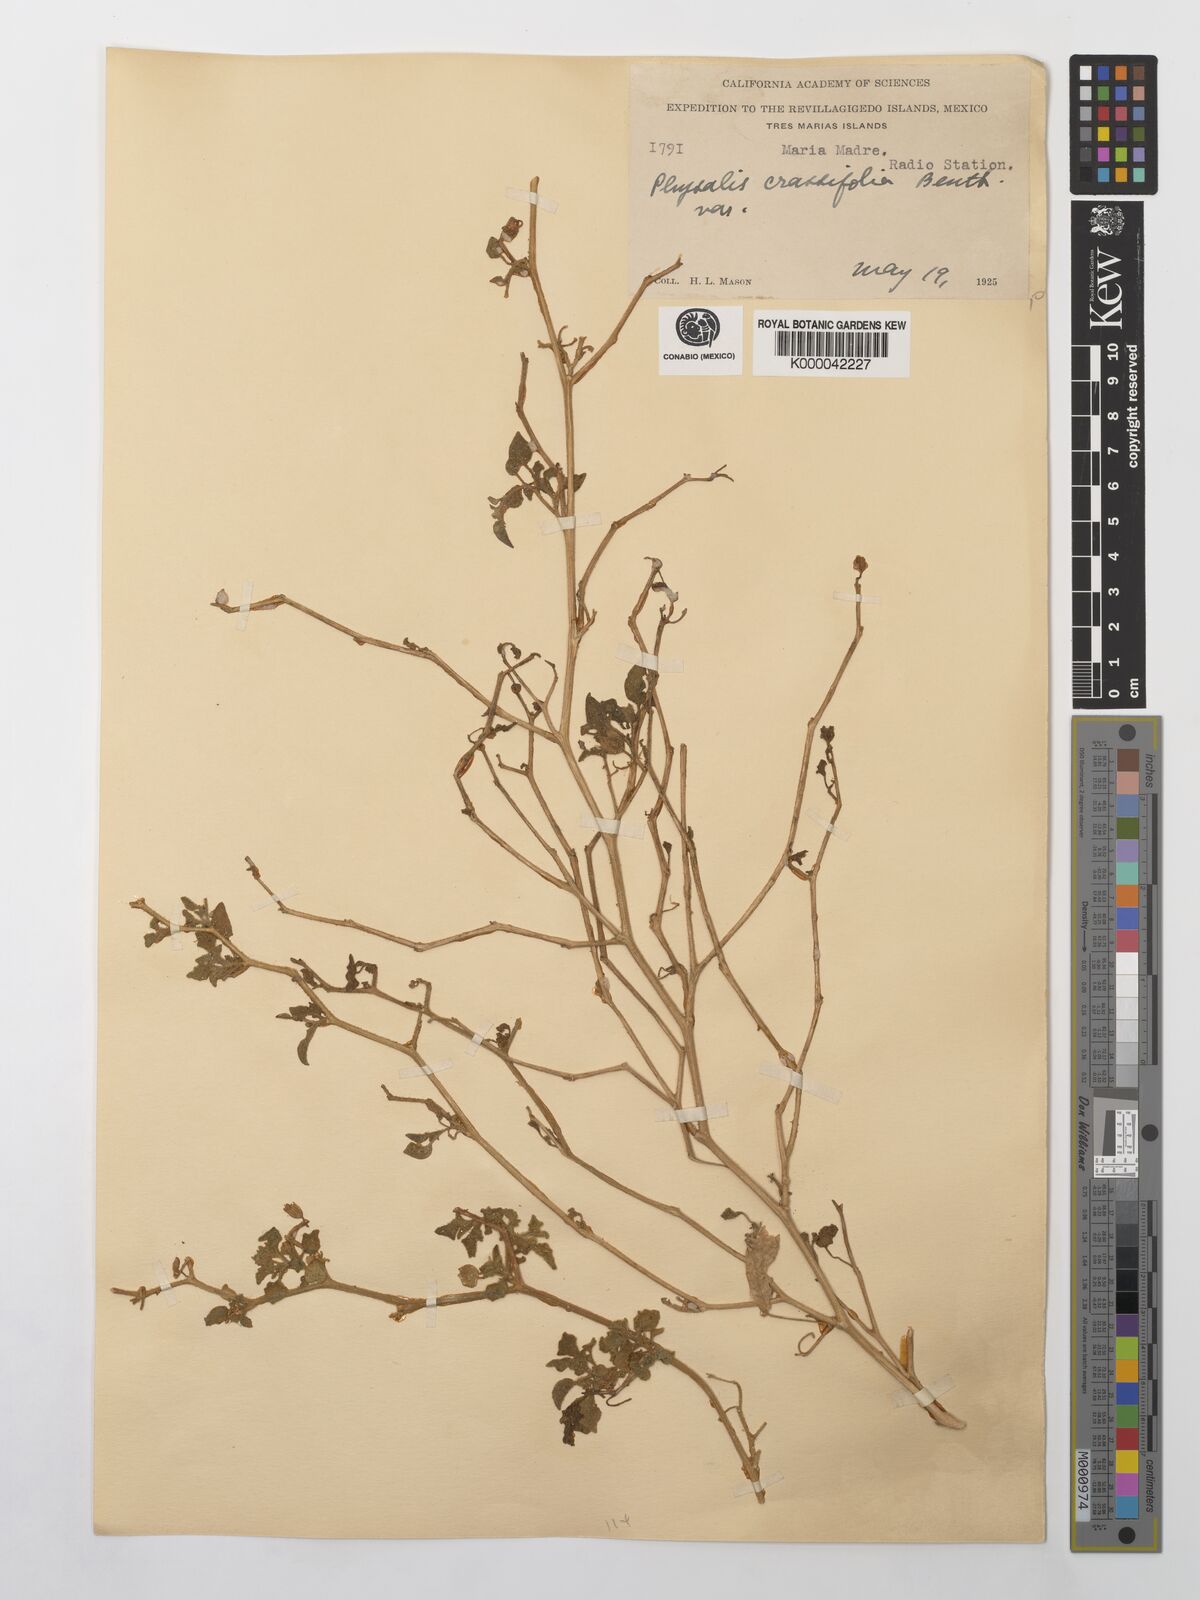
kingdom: Plantae
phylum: Tracheophyta
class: Magnoliopsida
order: Solanales
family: Solanaceae
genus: Physalis
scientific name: Physalis crassifolia
